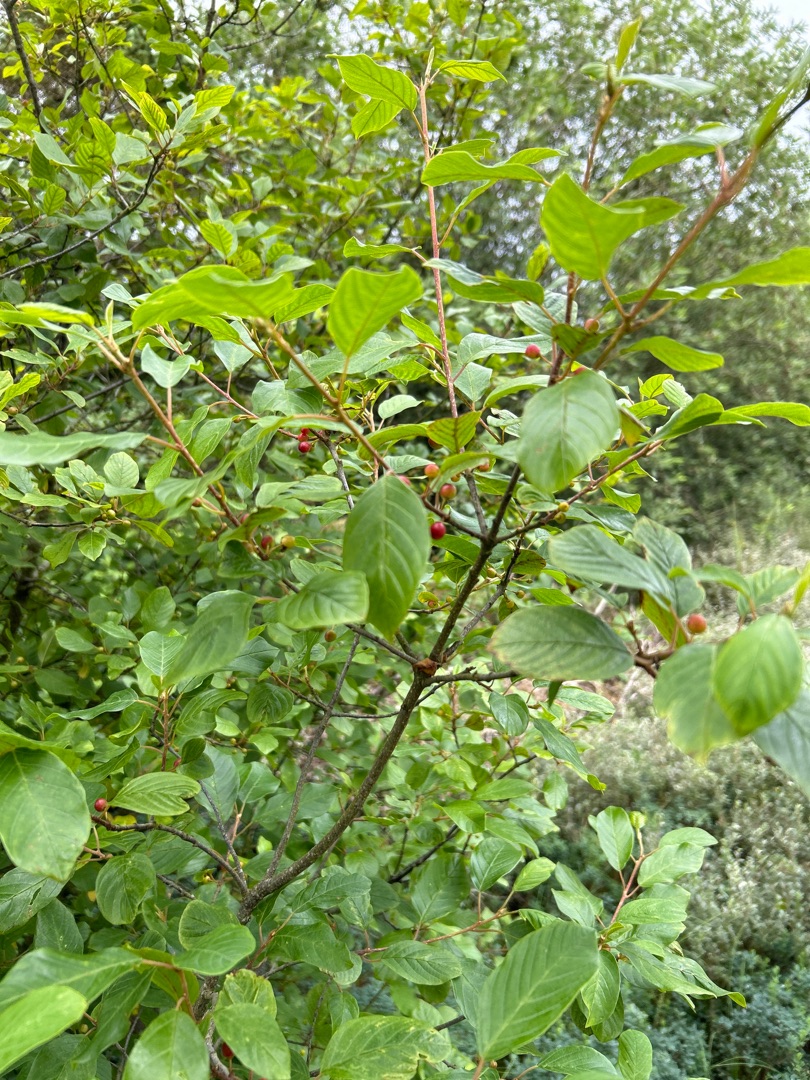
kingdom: Plantae
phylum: Tracheophyta
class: Magnoliopsida
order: Rosales
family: Rhamnaceae
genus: Frangula
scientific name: Frangula alnus
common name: Tørst
